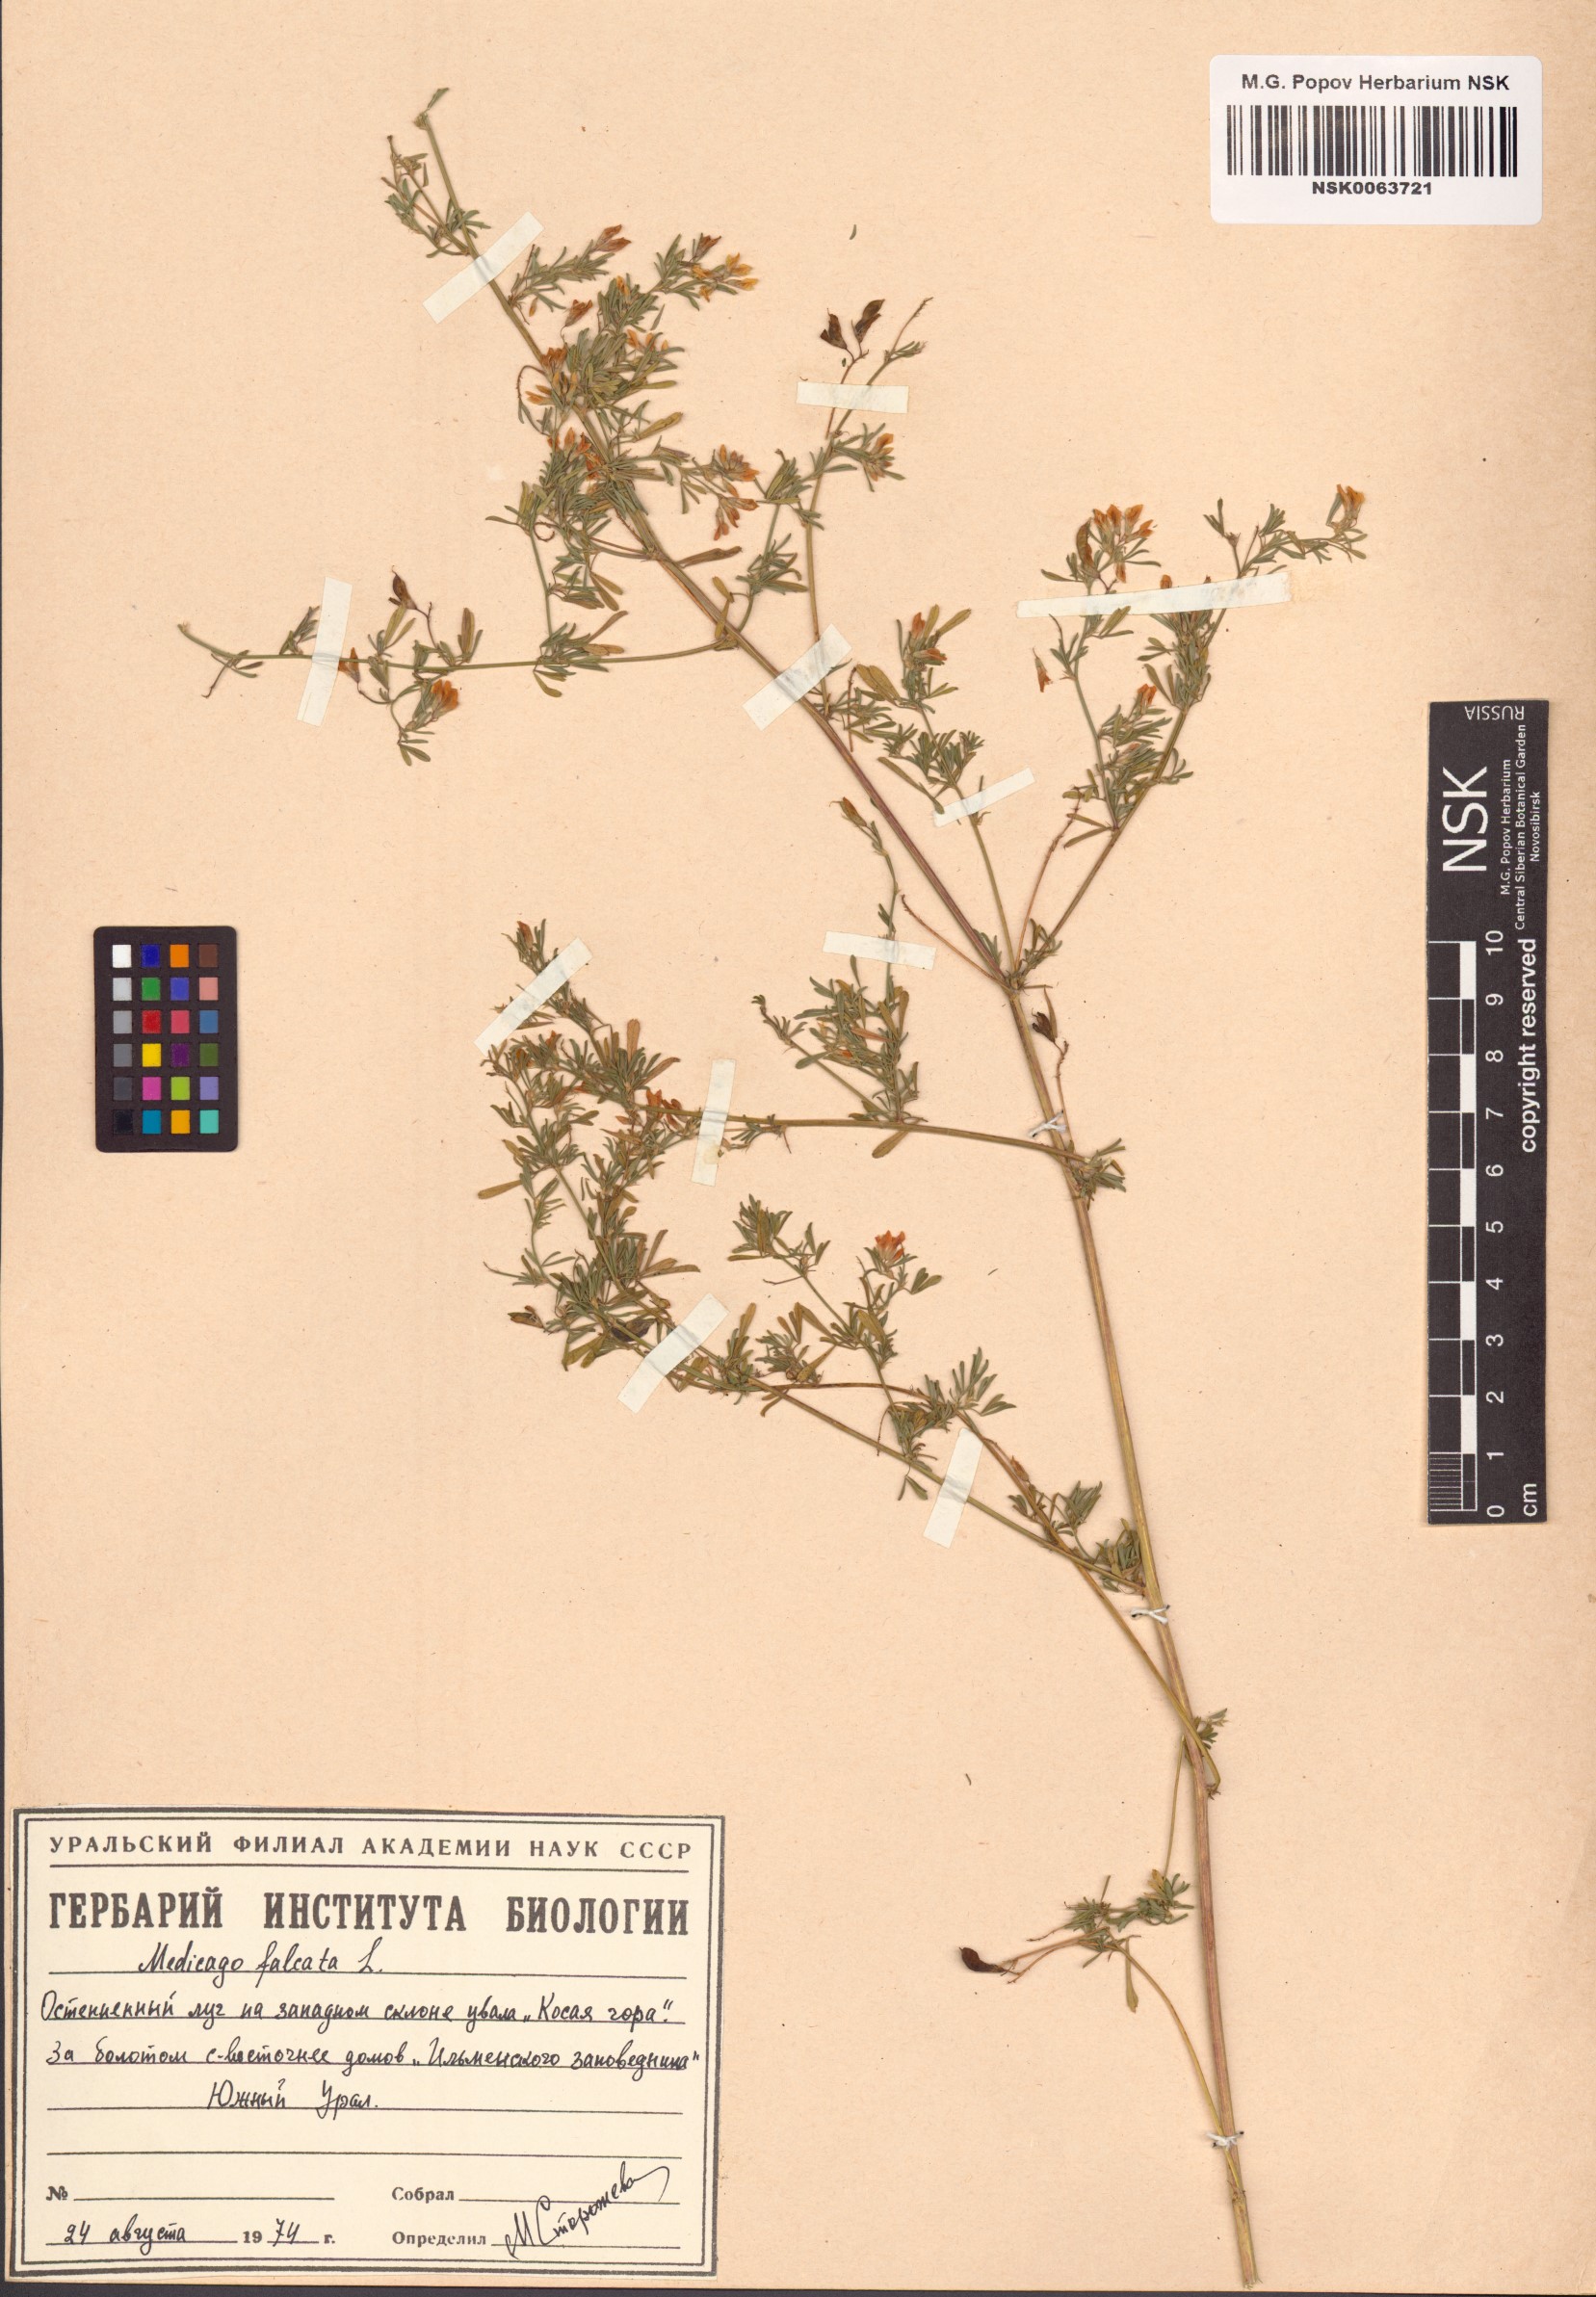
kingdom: Plantae
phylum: Tracheophyta
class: Magnoliopsida
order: Fabales
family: Fabaceae
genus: Medicago
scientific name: Medicago falcata
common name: Sickle medick
